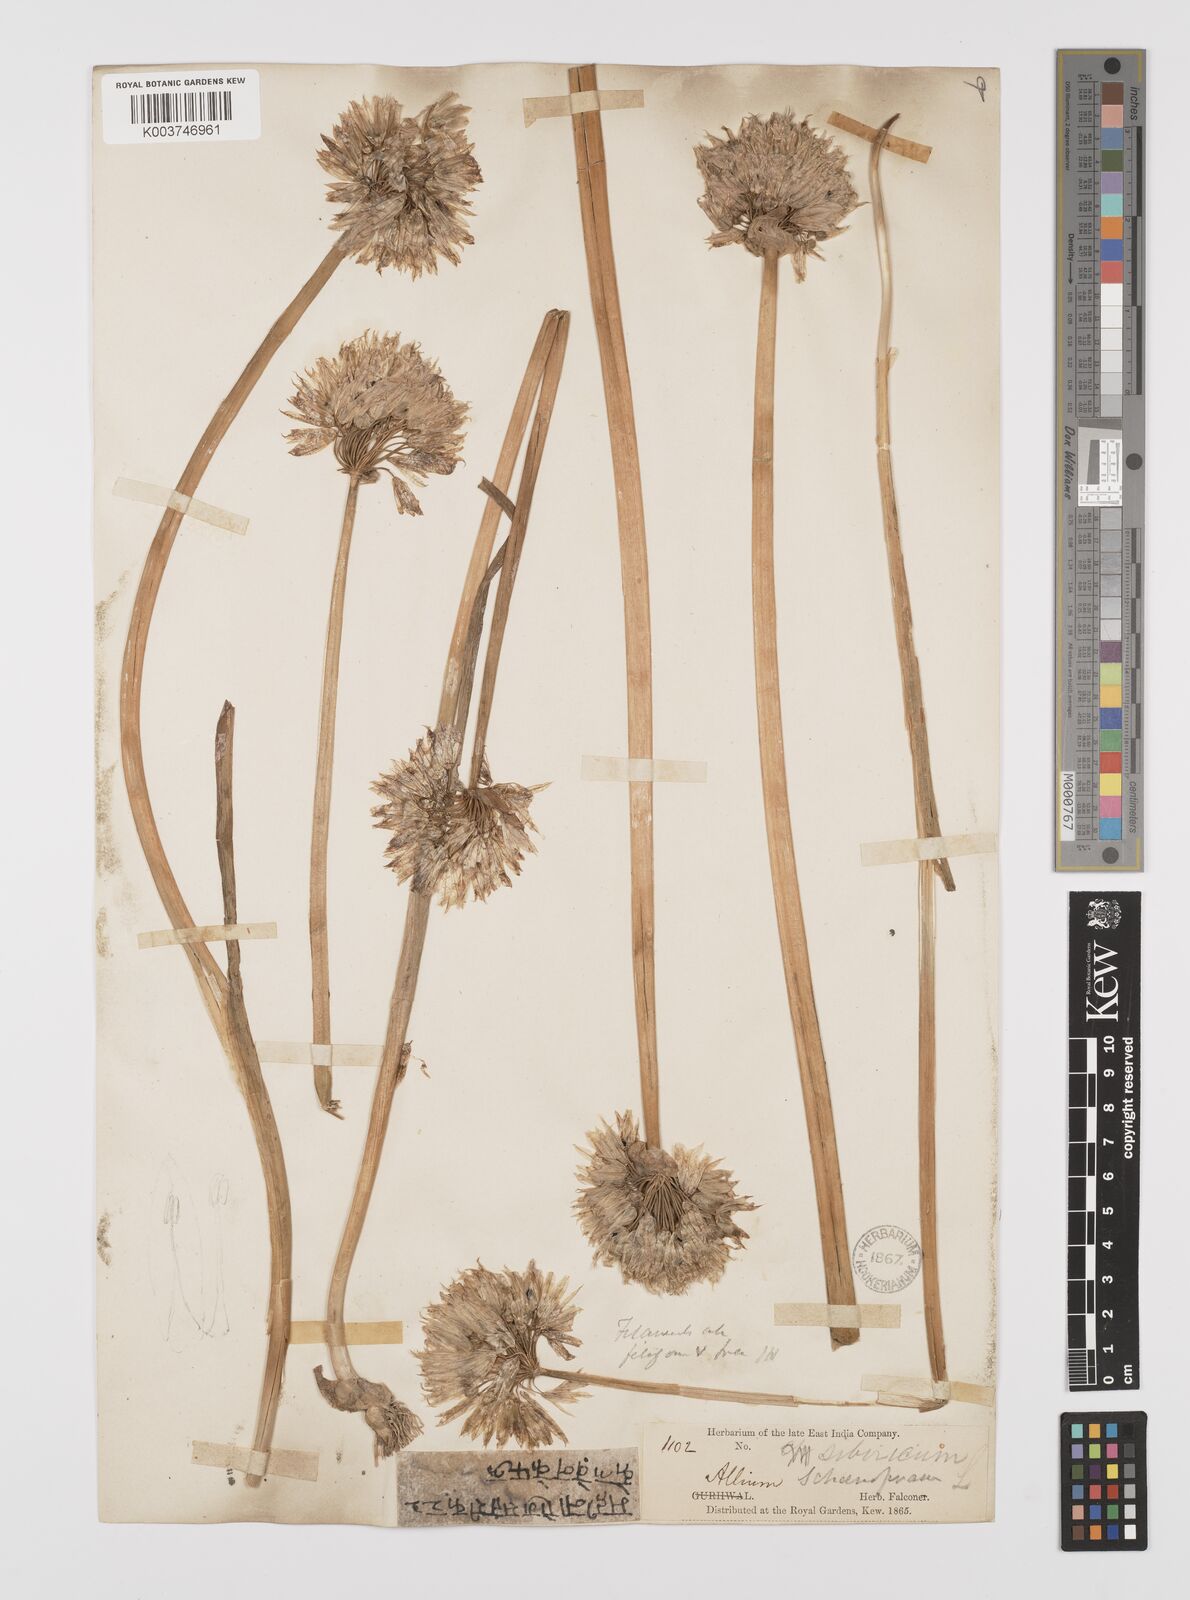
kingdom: Plantae
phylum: Tracheophyta
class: Liliopsida
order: Asparagales
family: Amaryllidaceae
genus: Allium
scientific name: Allium schoenoprasum
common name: Chives
